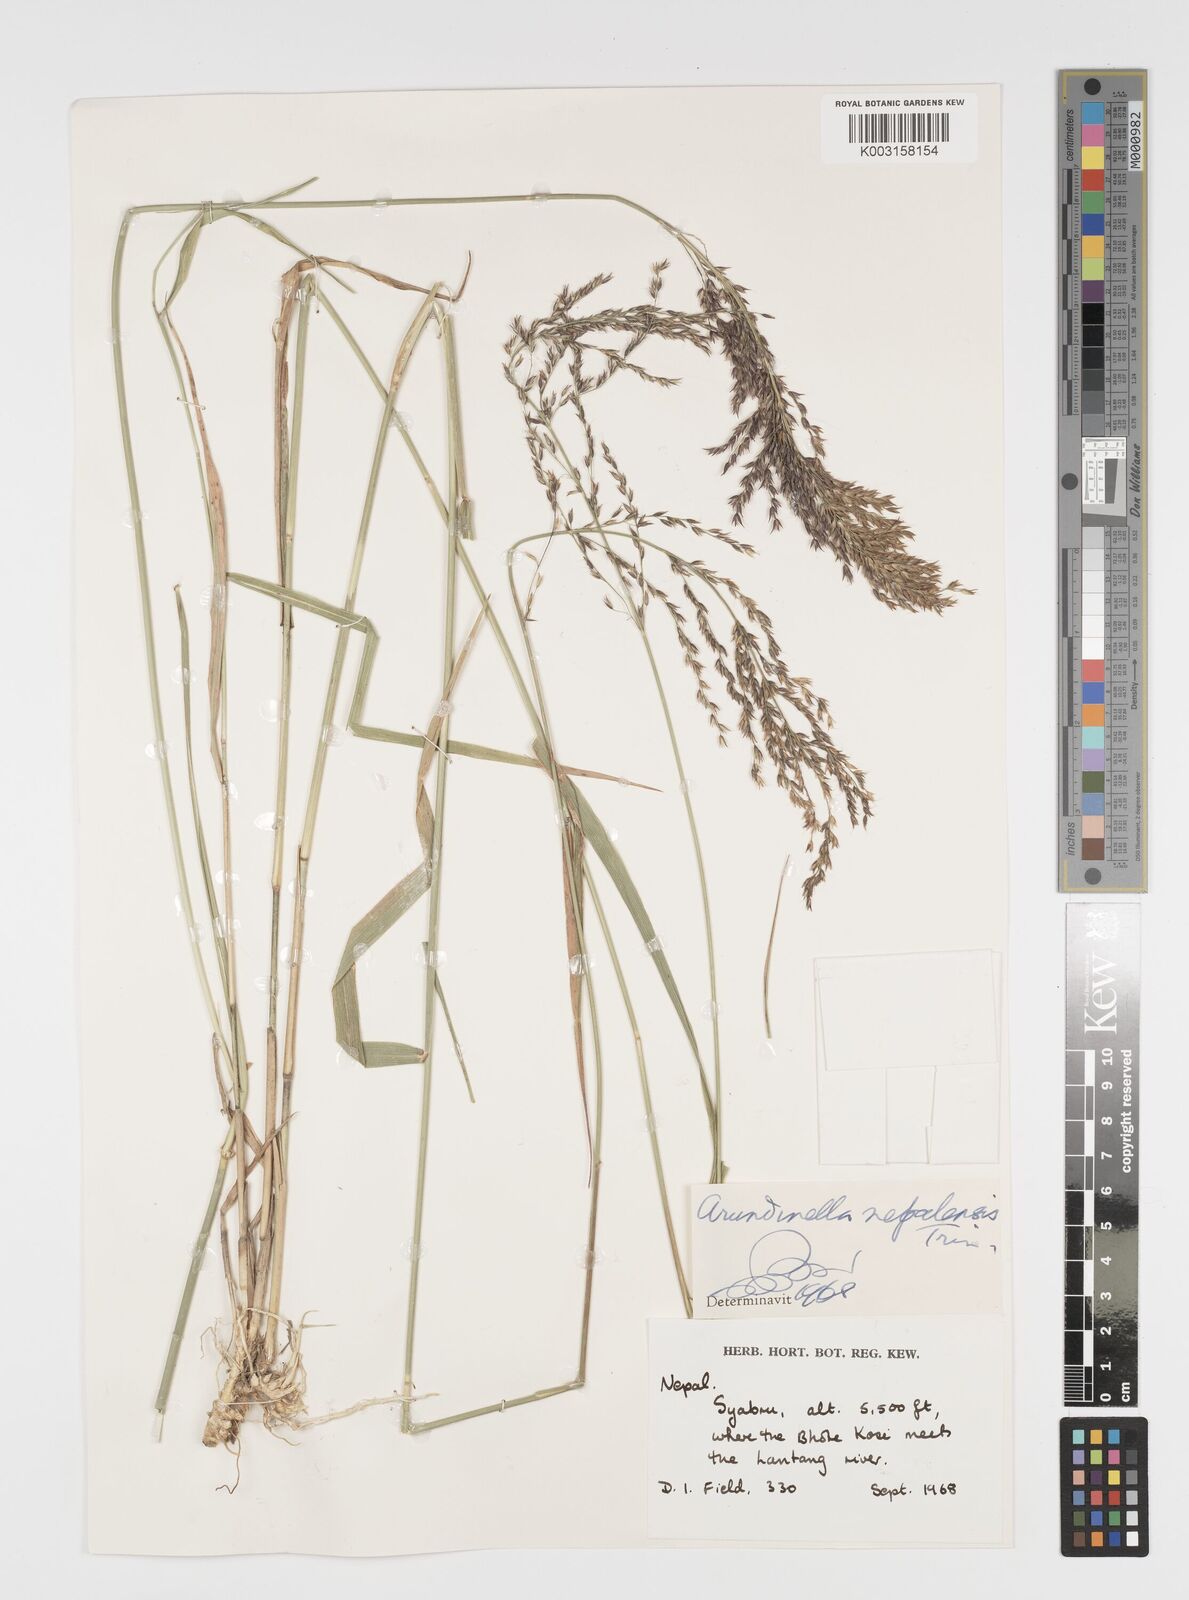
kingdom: Plantae
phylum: Tracheophyta
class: Liliopsida
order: Poales
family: Poaceae
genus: Arundinella
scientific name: Arundinella nepalensis
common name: Reed grass
